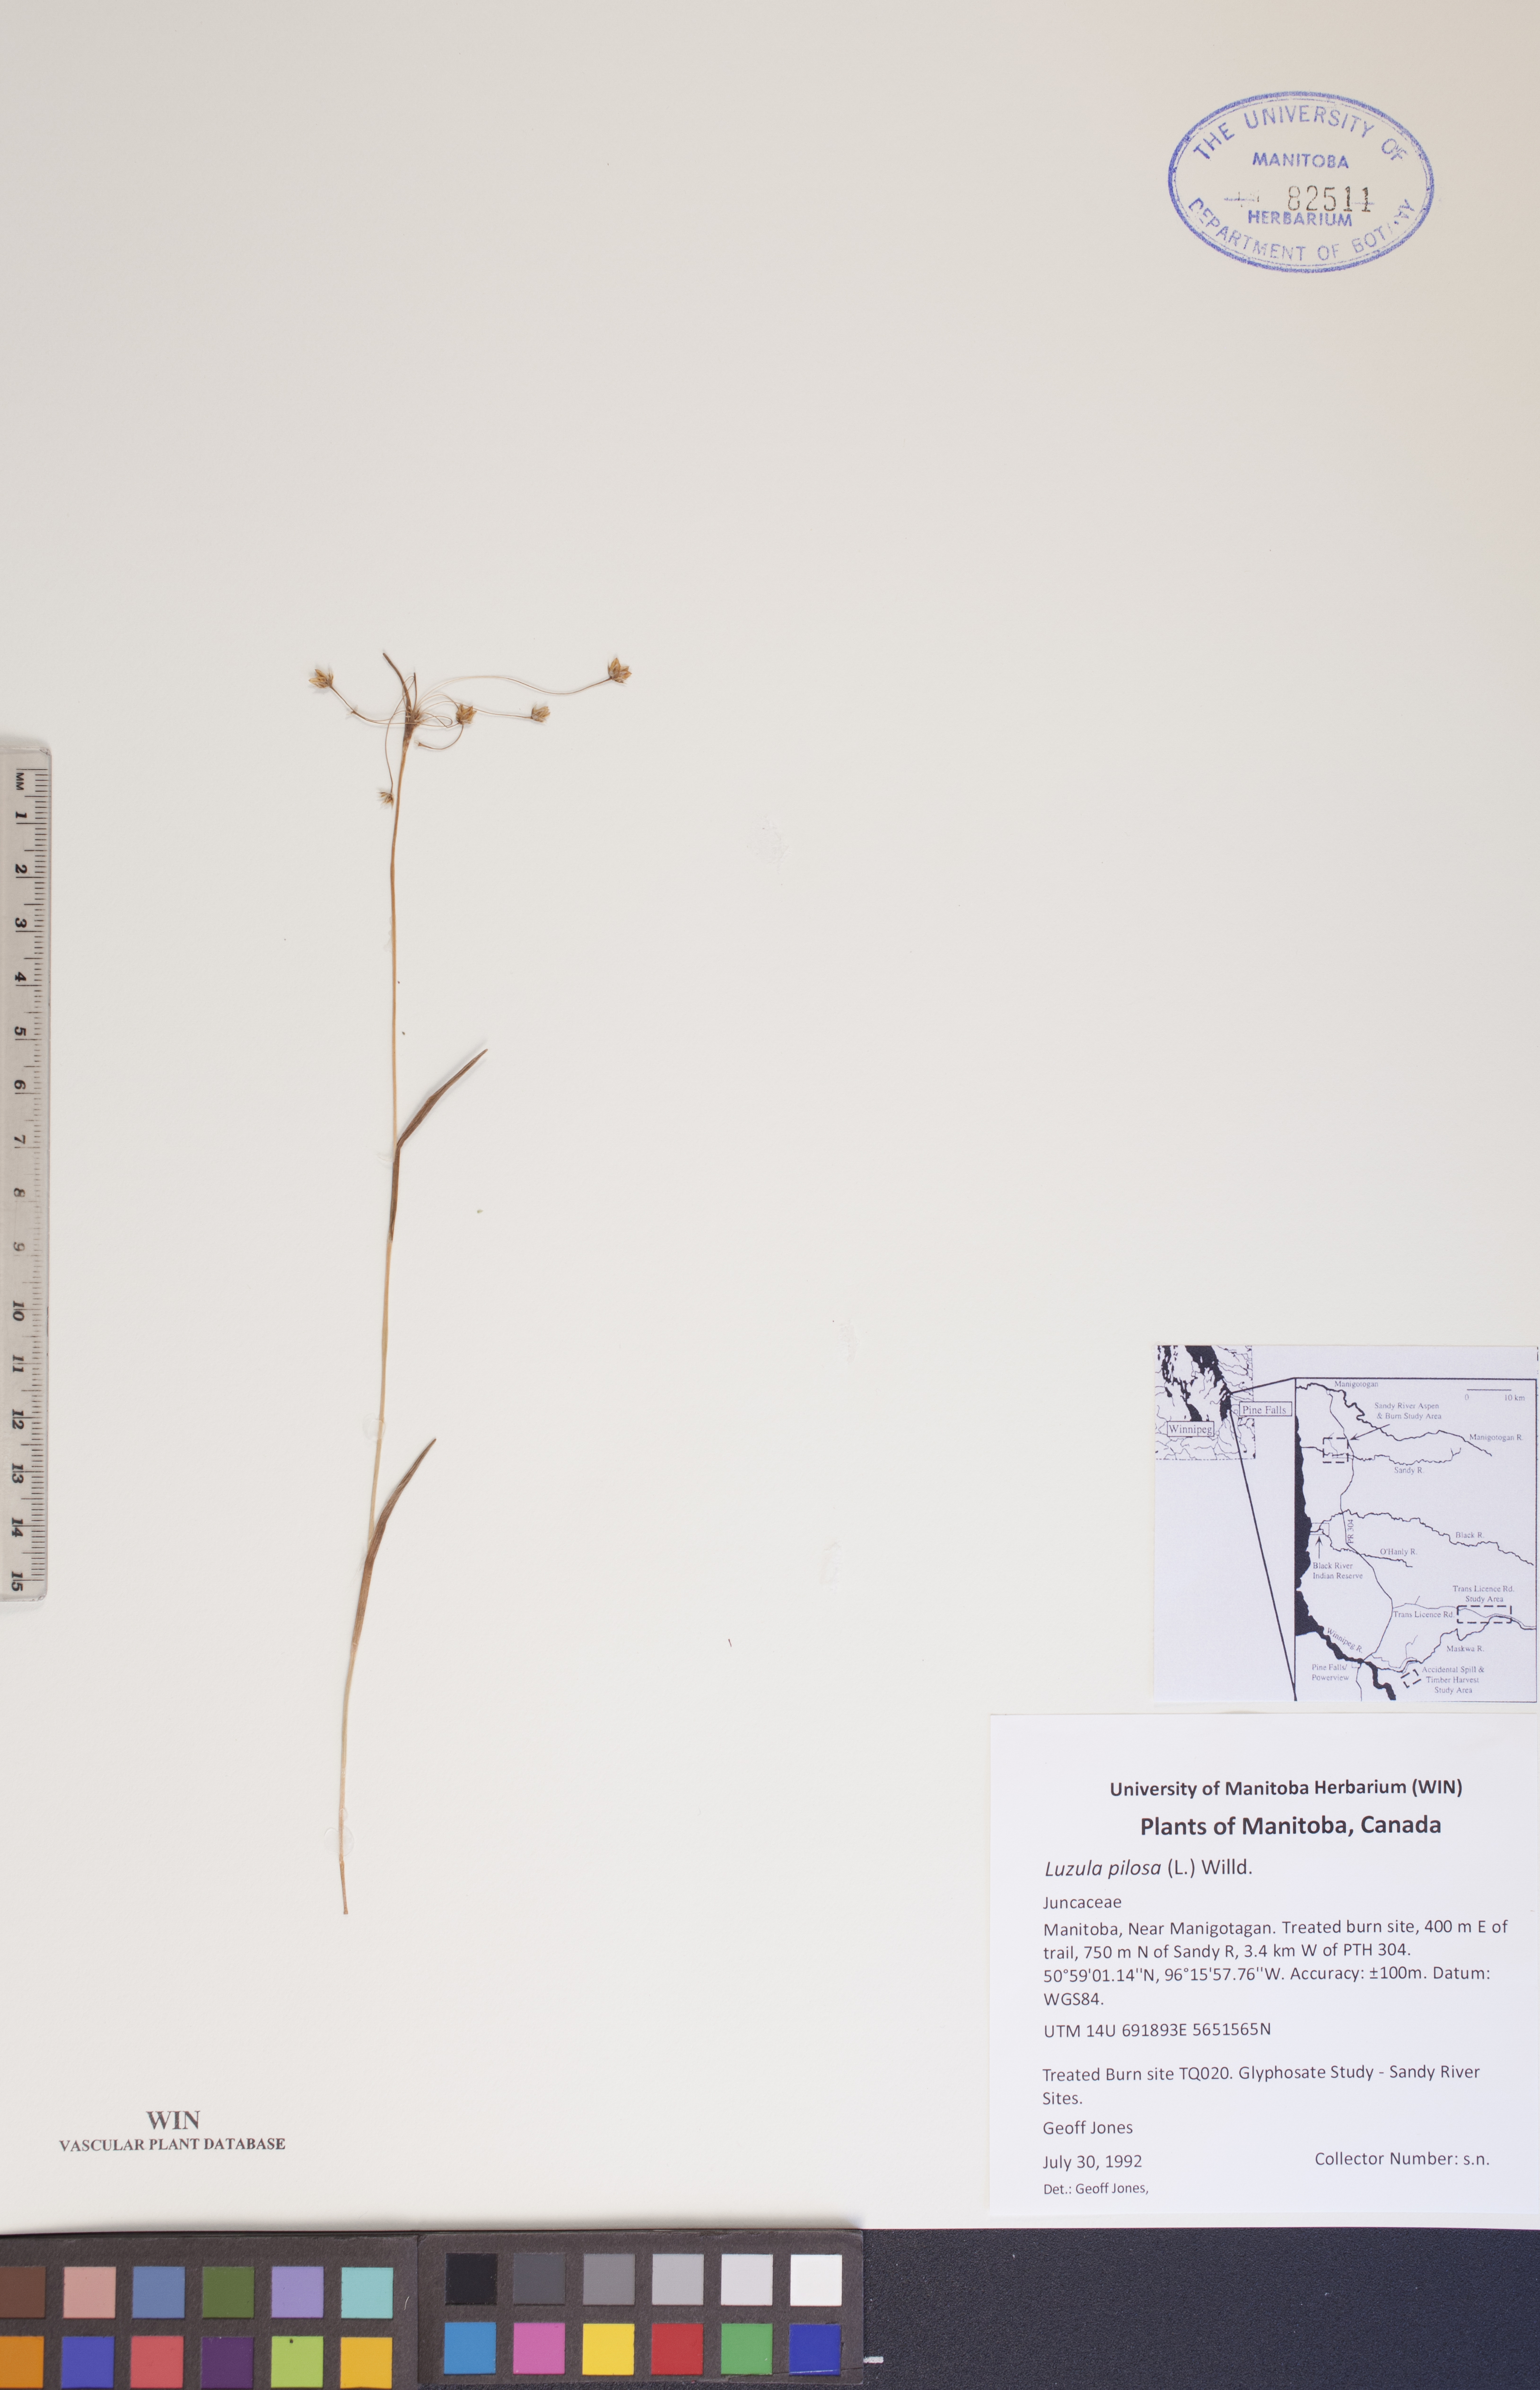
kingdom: Plantae
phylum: Tracheophyta
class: Liliopsida
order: Poales
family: Juncaceae
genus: Luzula
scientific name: Luzula pilosa
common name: Hairy wood-rush
